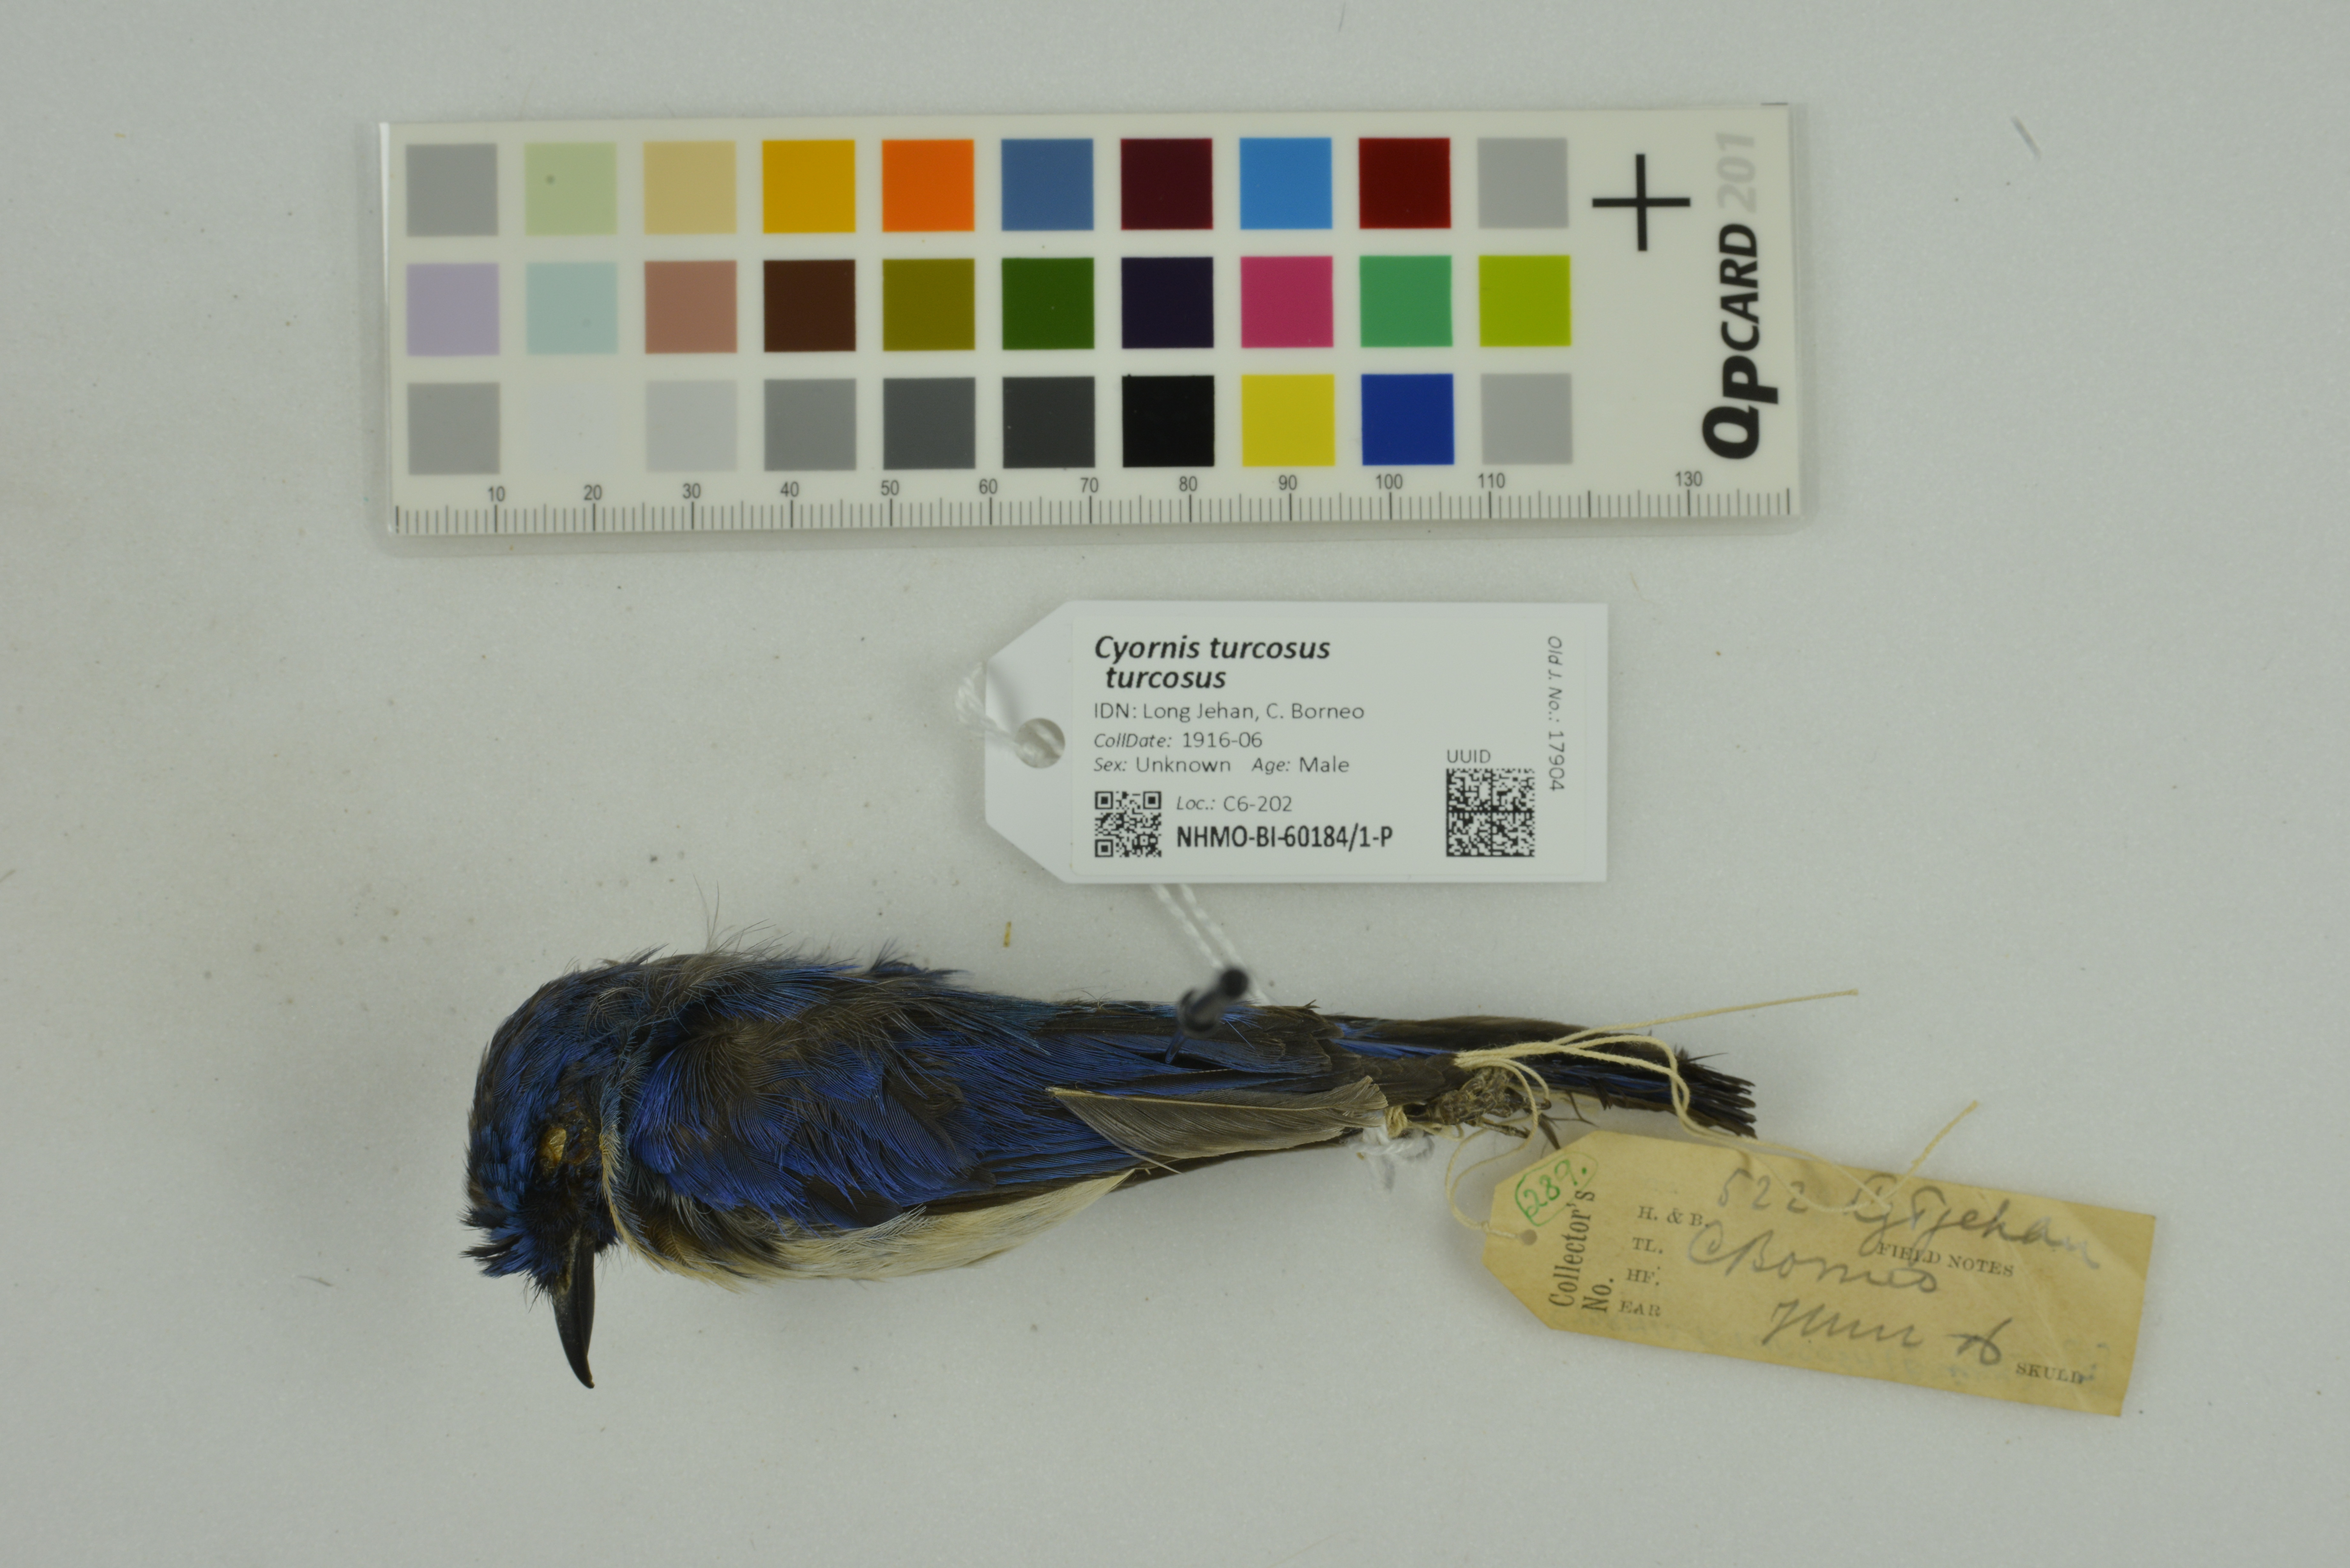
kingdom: Animalia
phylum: Chordata
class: Aves
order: Passeriformes
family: Muscicapidae
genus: Cyornis
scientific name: Cyornis turcosus
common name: Malaysian blue flycatcher
